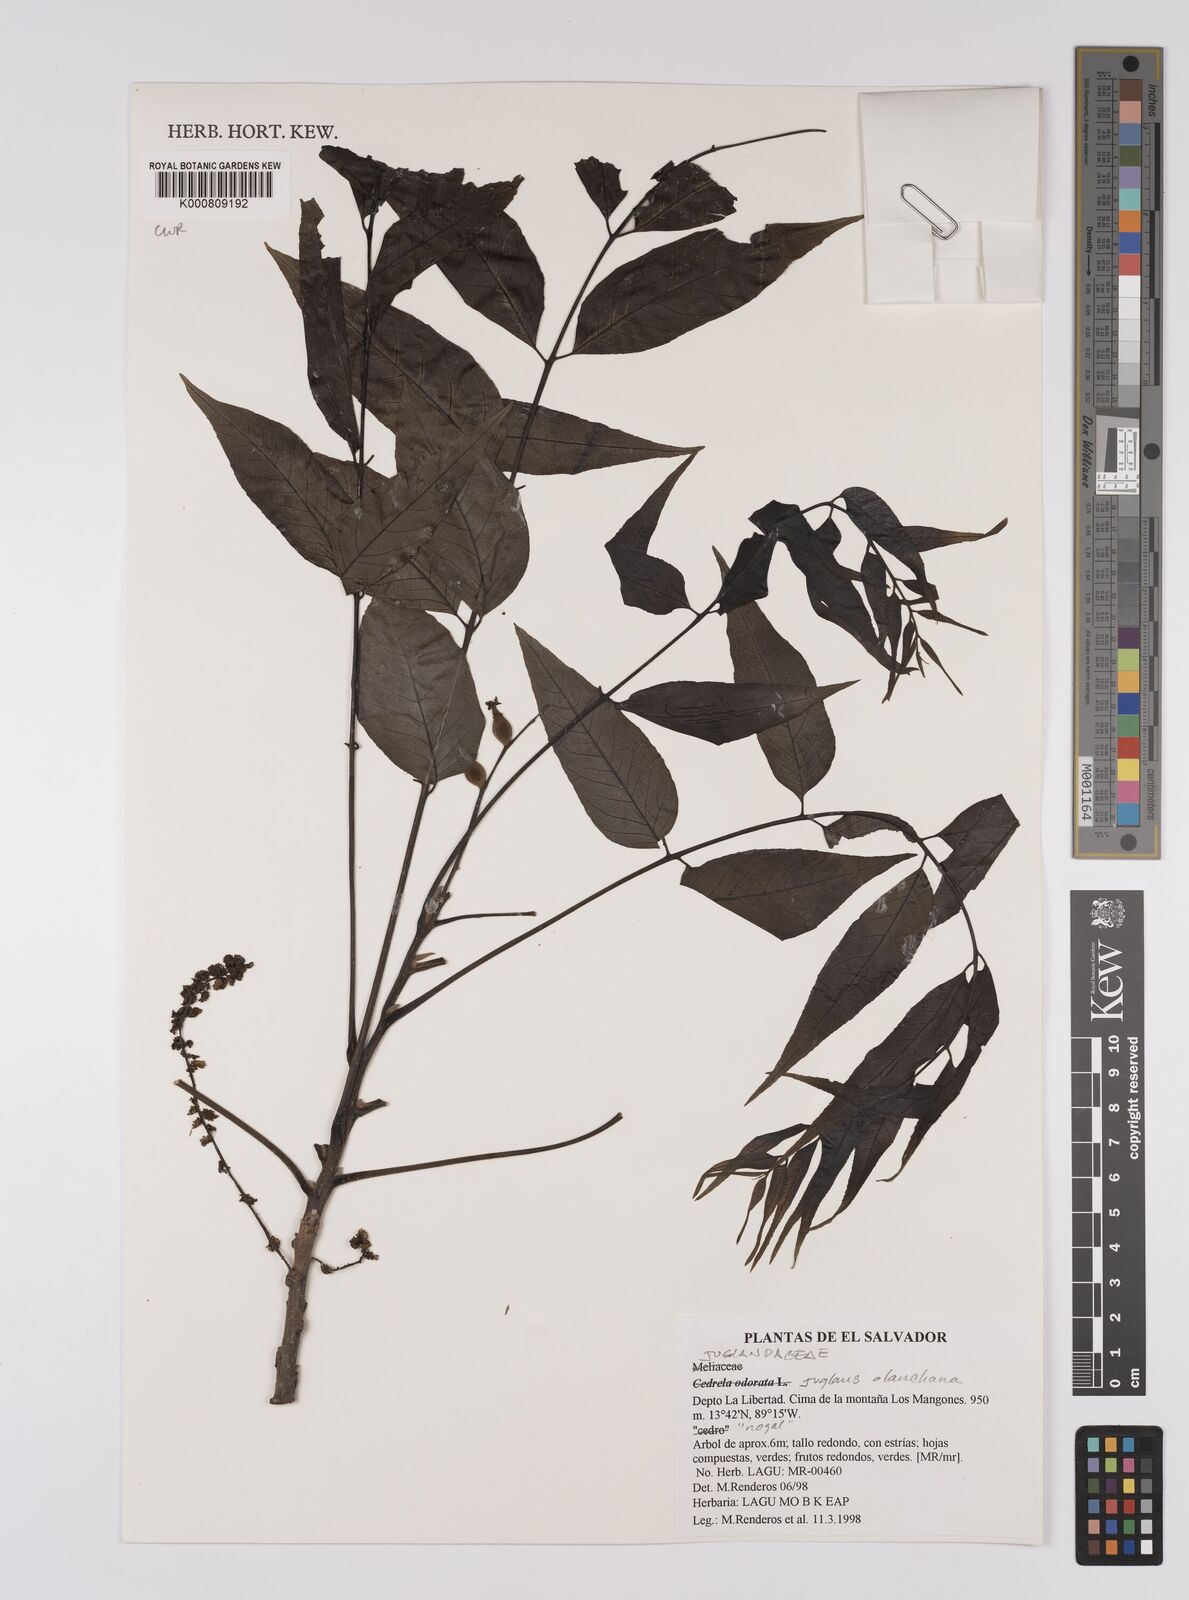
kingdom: Plantae
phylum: Tracheophyta
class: Magnoliopsida
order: Fagales
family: Juglandaceae
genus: Juglans
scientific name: Juglans olanchana
